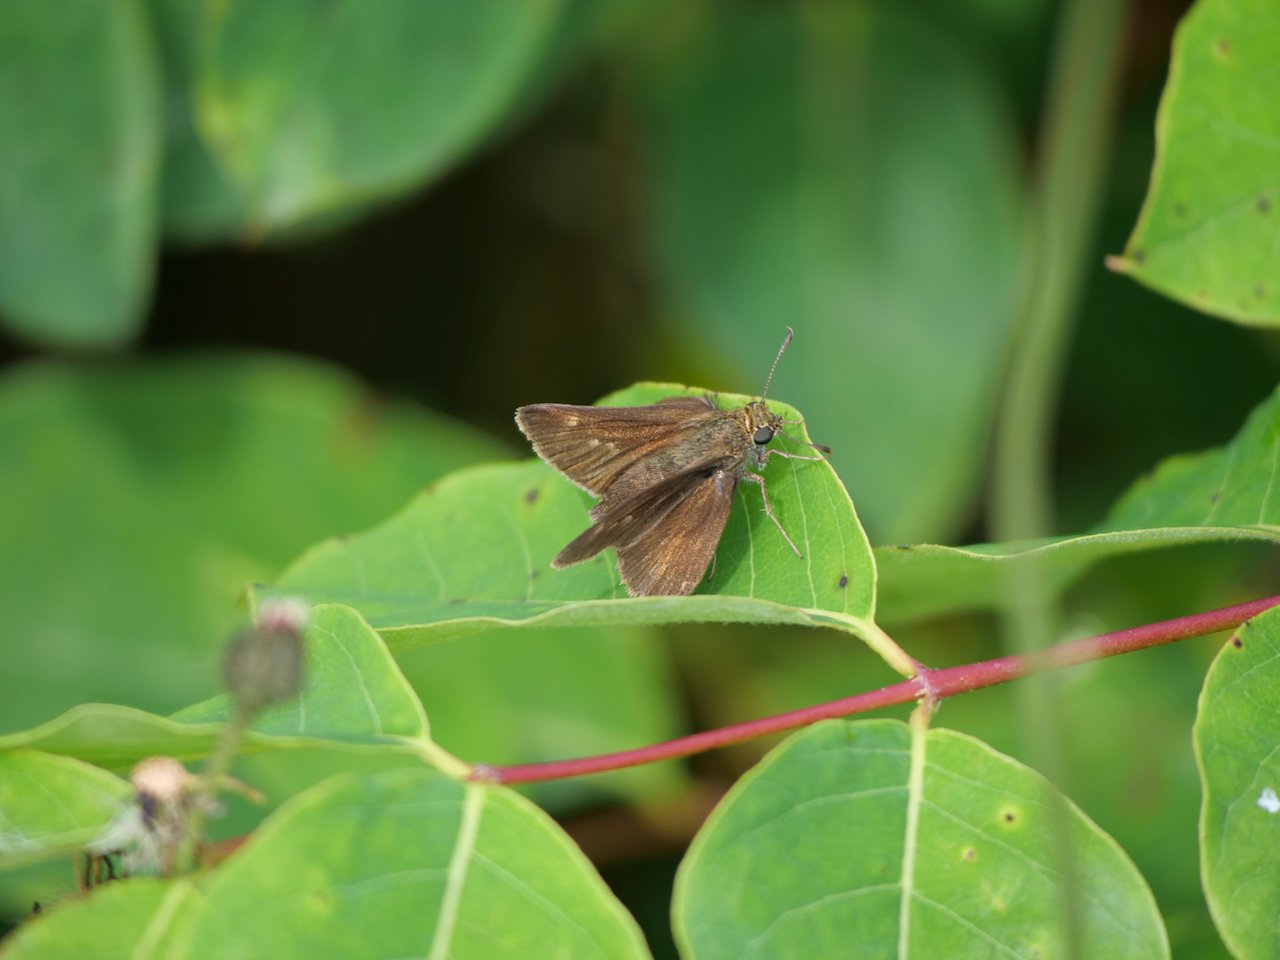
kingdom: Animalia
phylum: Arthropoda
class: Insecta
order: Lepidoptera
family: Hesperiidae
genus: Euphyes
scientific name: Euphyes vestris
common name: Dun Skipper
